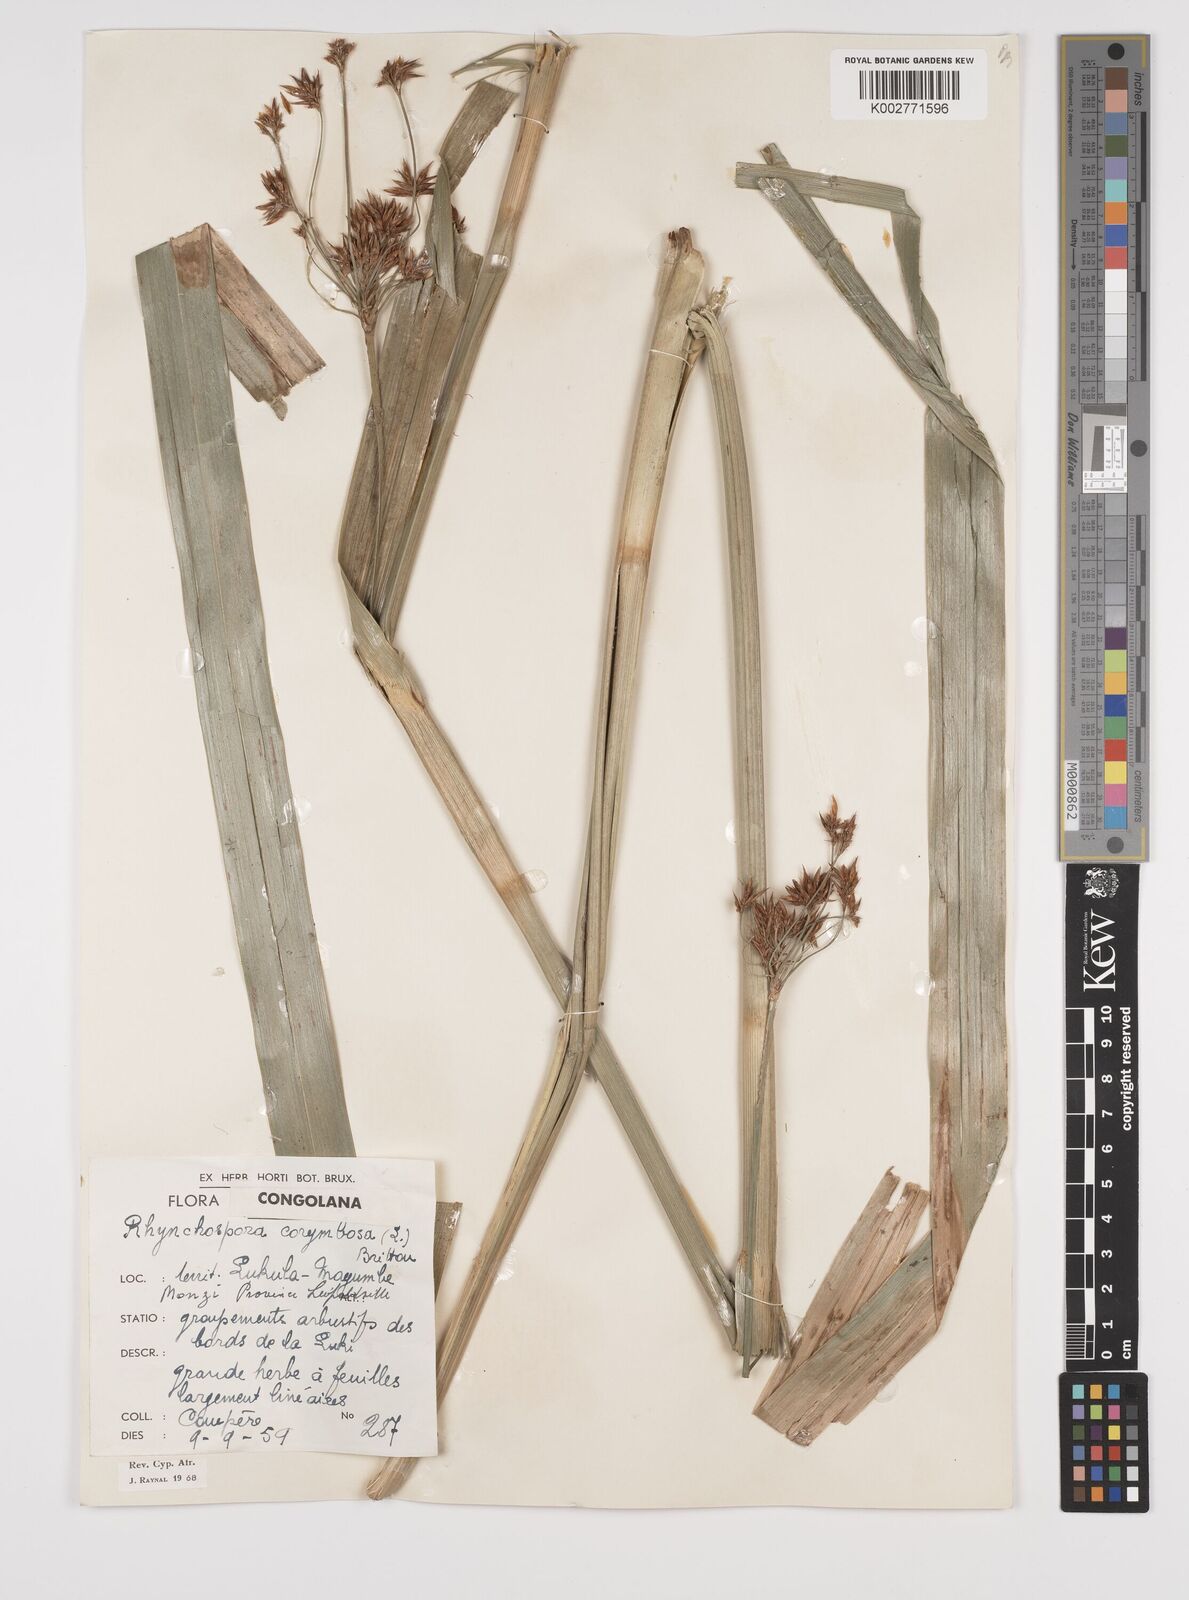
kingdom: Plantae
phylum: Tracheophyta
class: Liliopsida
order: Poales
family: Cyperaceae
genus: Rhynchospora
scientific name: Rhynchospora corymbosa
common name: Golden beak sedge
